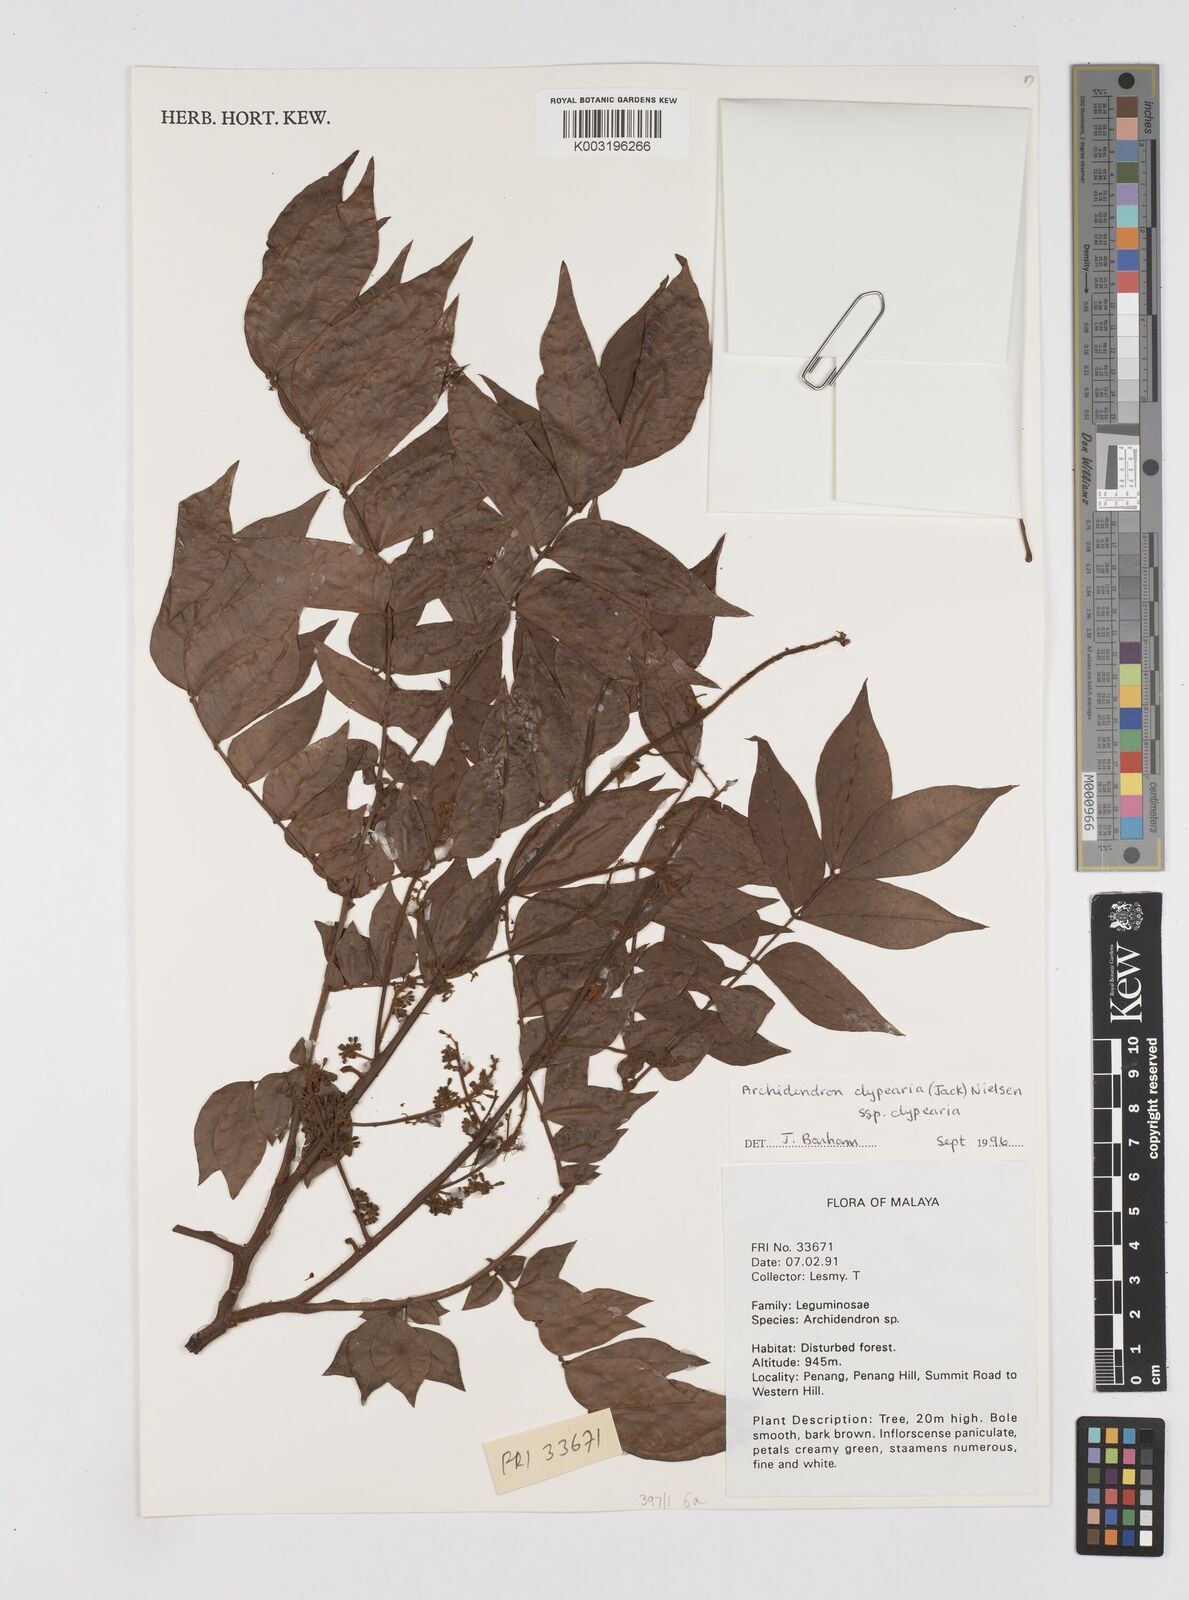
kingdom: Plantae
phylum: Tracheophyta
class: Magnoliopsida
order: Fabales
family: Fabaceae
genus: Archidendron
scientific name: Archidendron clypearia
